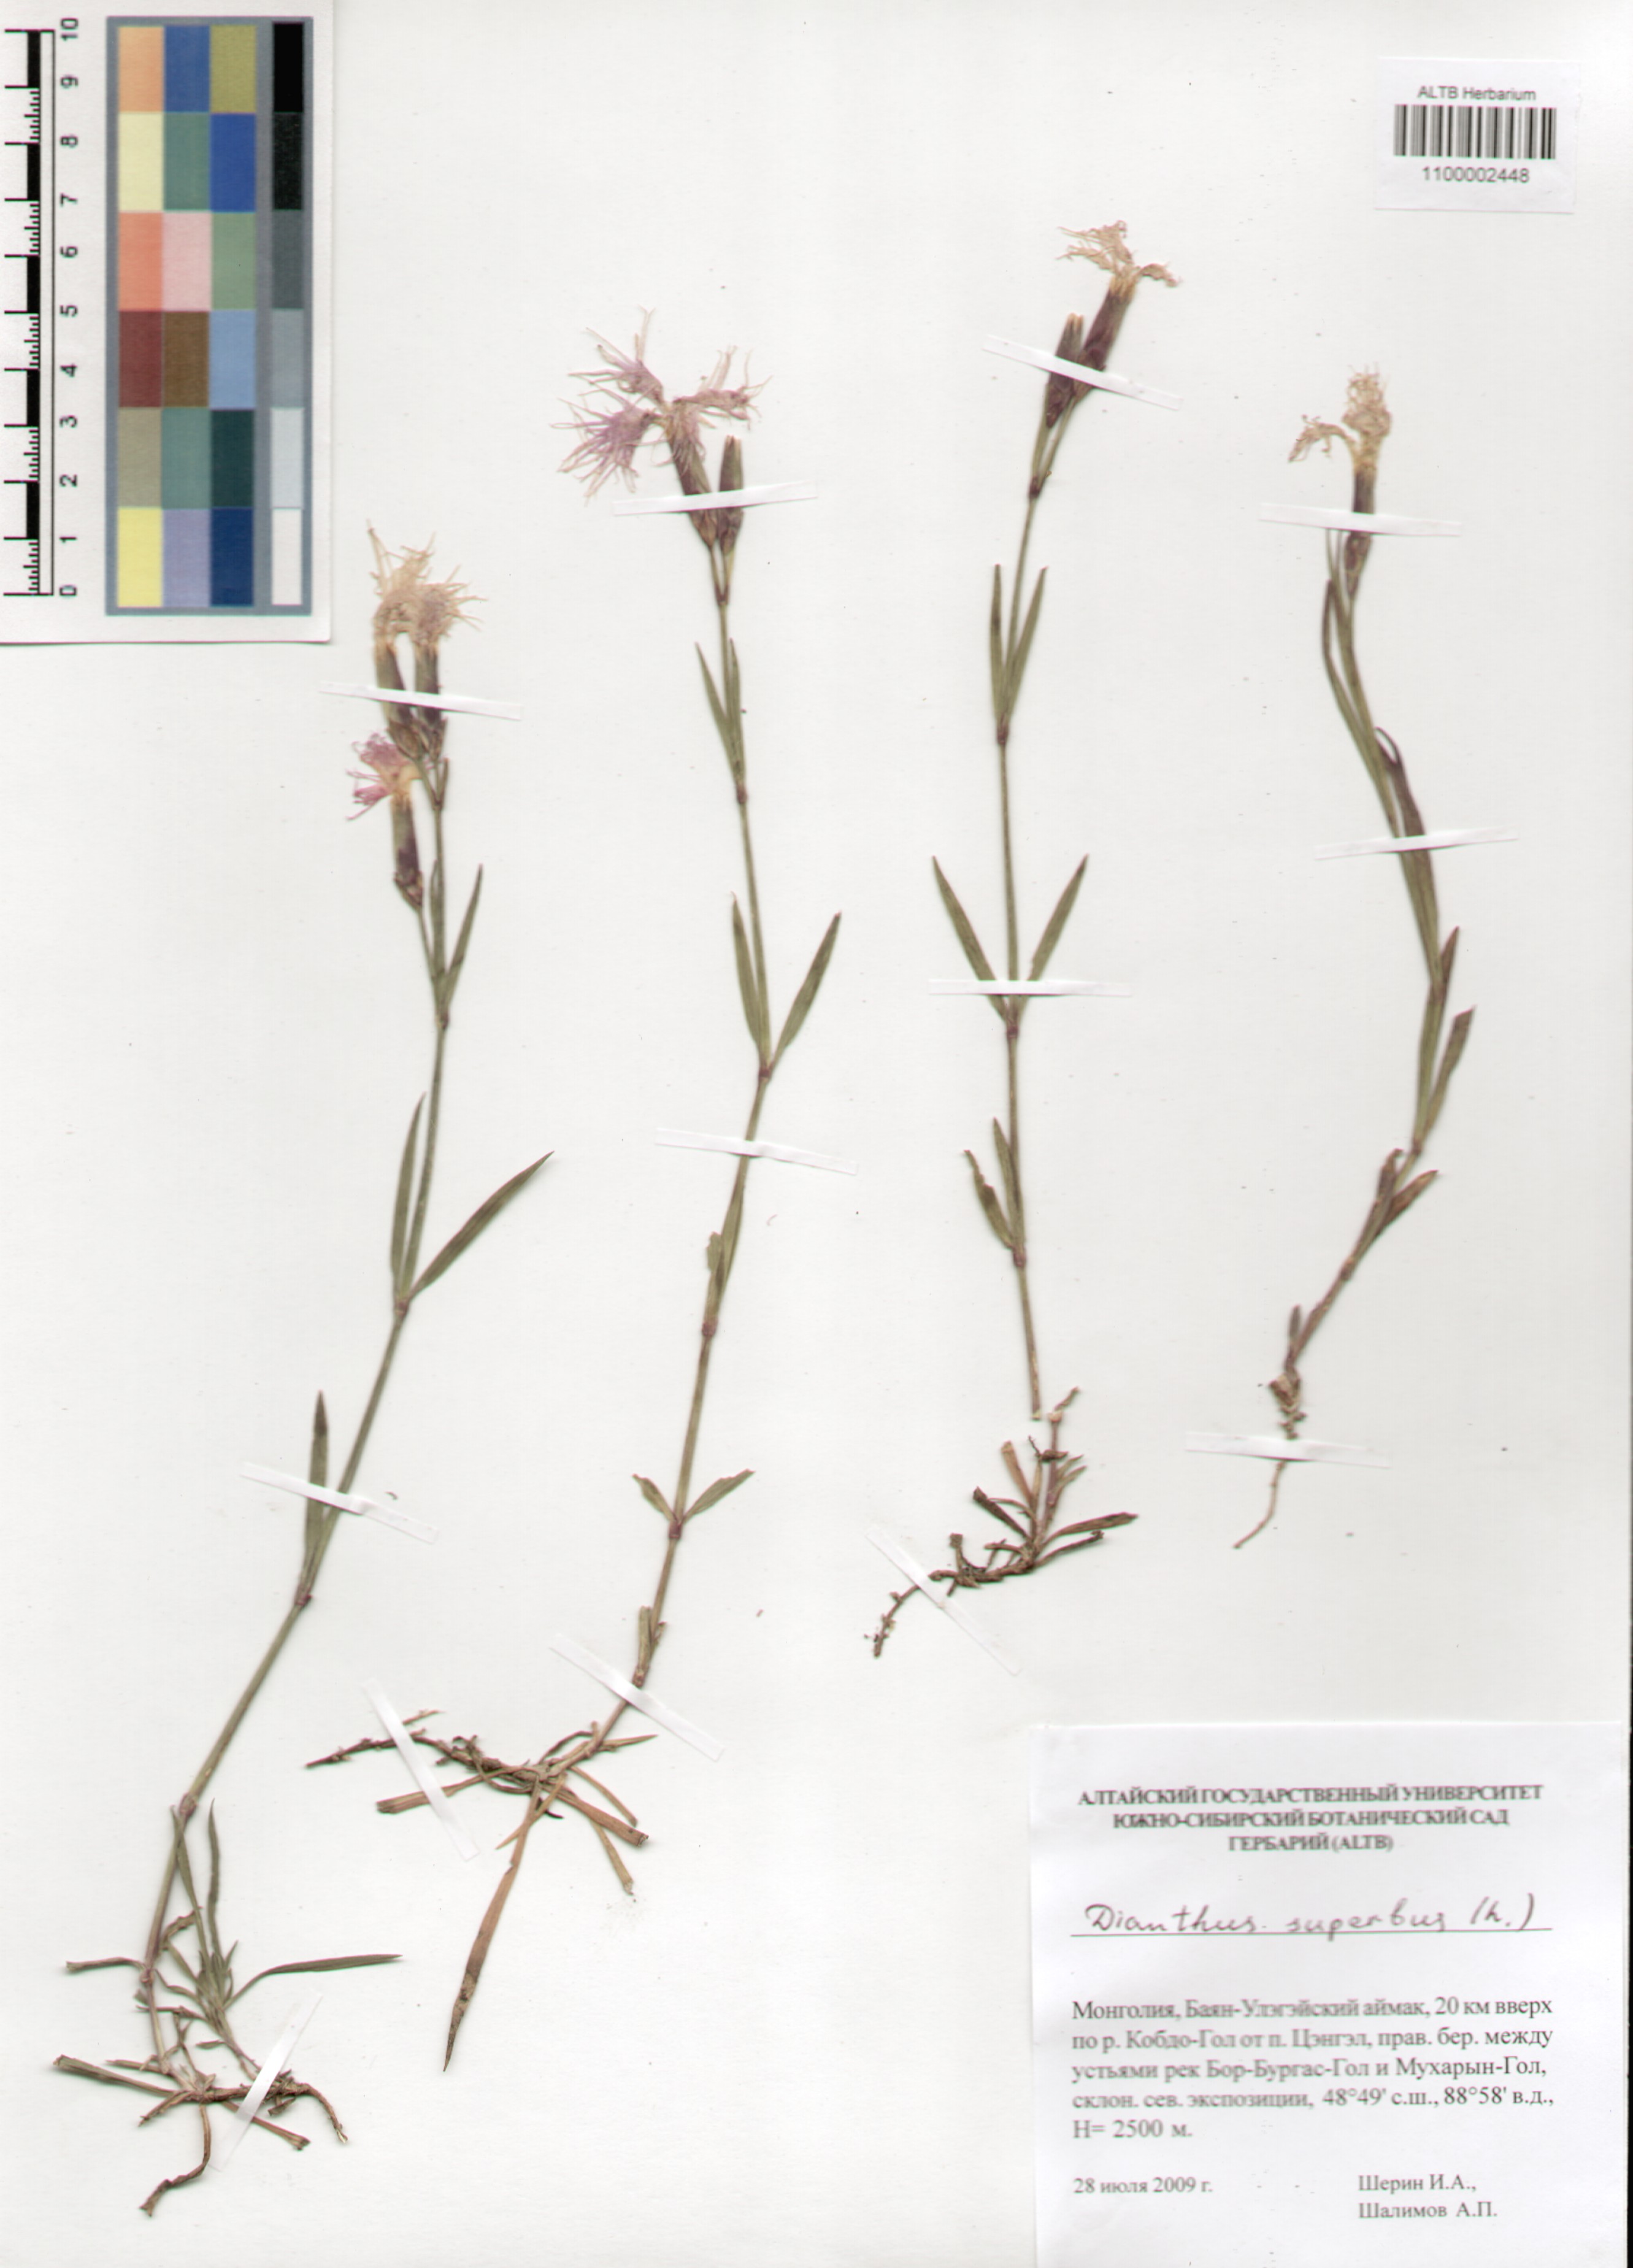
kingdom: Plantae
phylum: Tracheophyta
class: Magnoliopsida
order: Caryophyllales
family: Caryophyllaceae
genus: Dianthus
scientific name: Dianthus superbus
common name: Fringed pink
